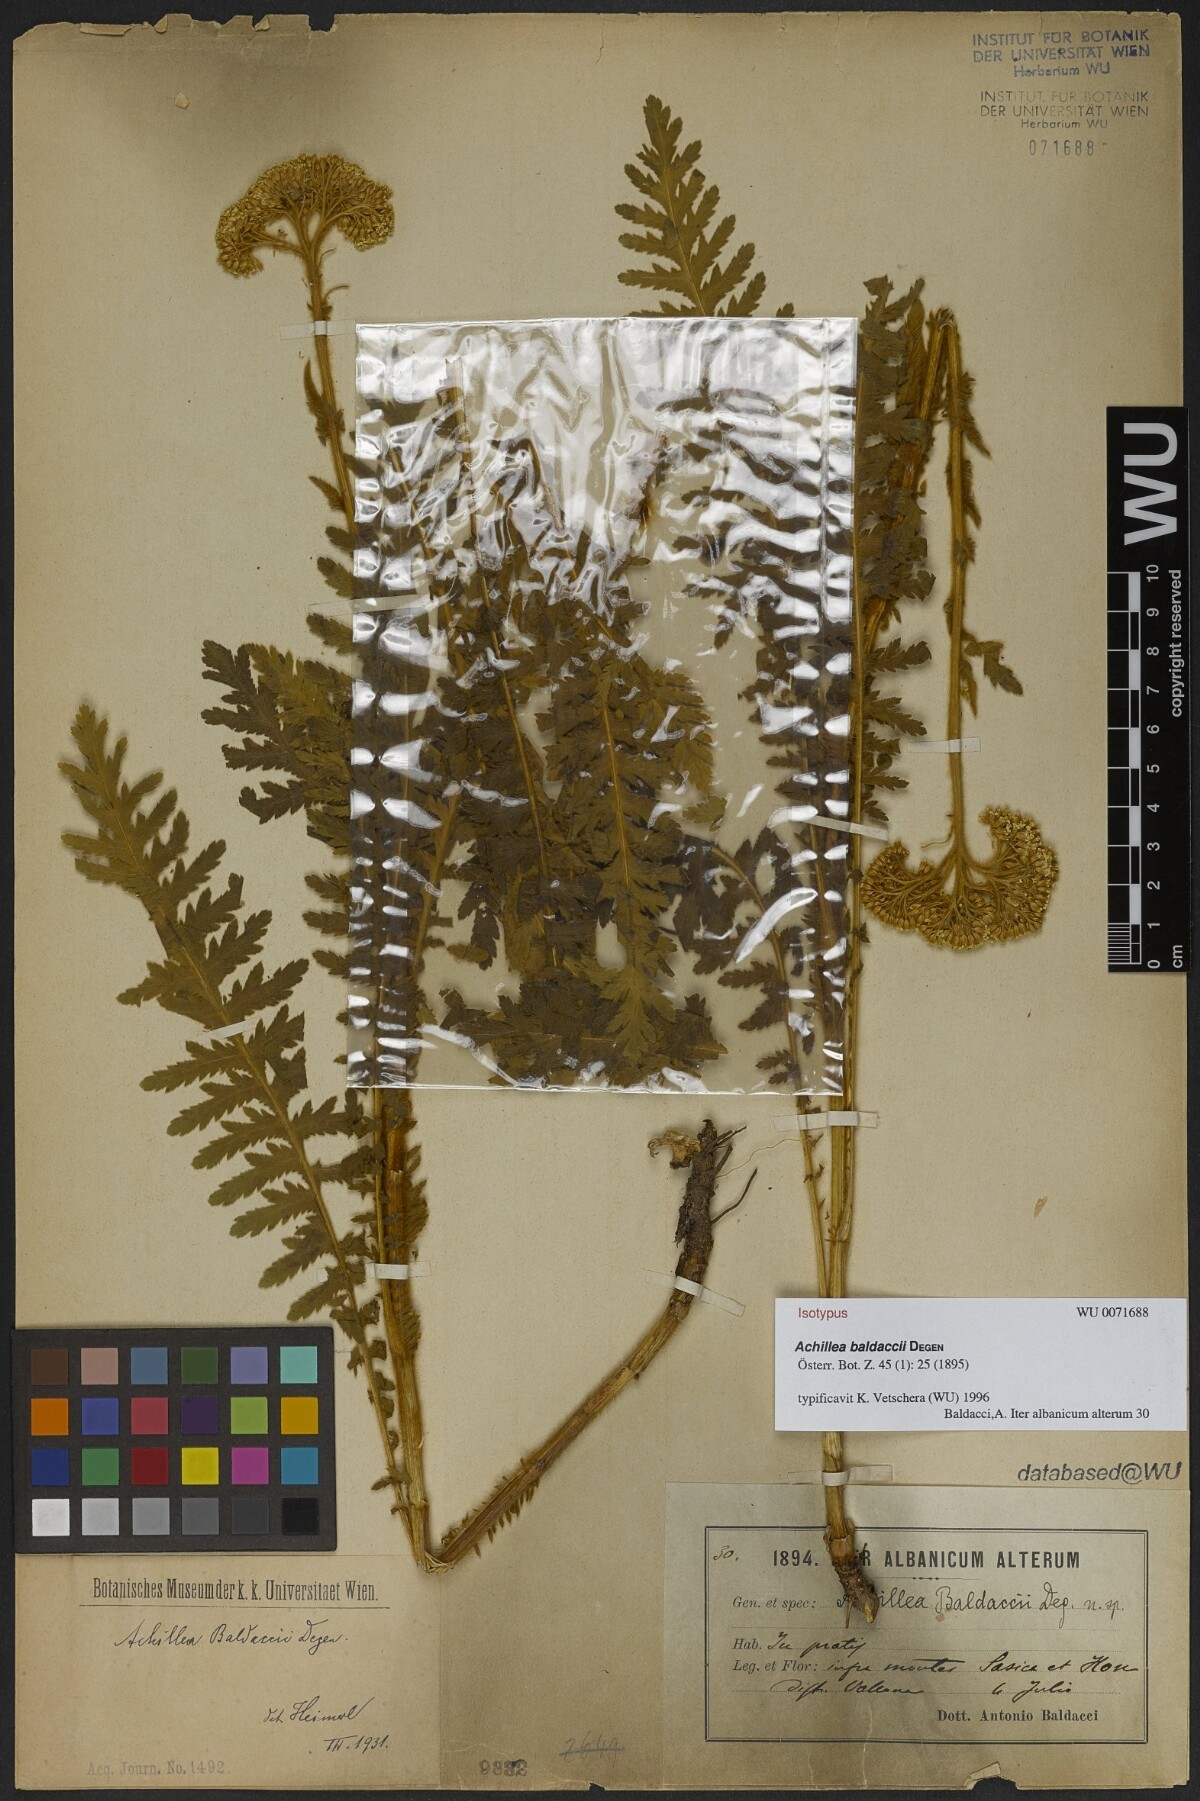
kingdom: Plantae
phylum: Tracheophyta
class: Magnoliopsida
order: Asterales
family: Asteraceae
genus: Achillea
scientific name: Achillea baldaccii
